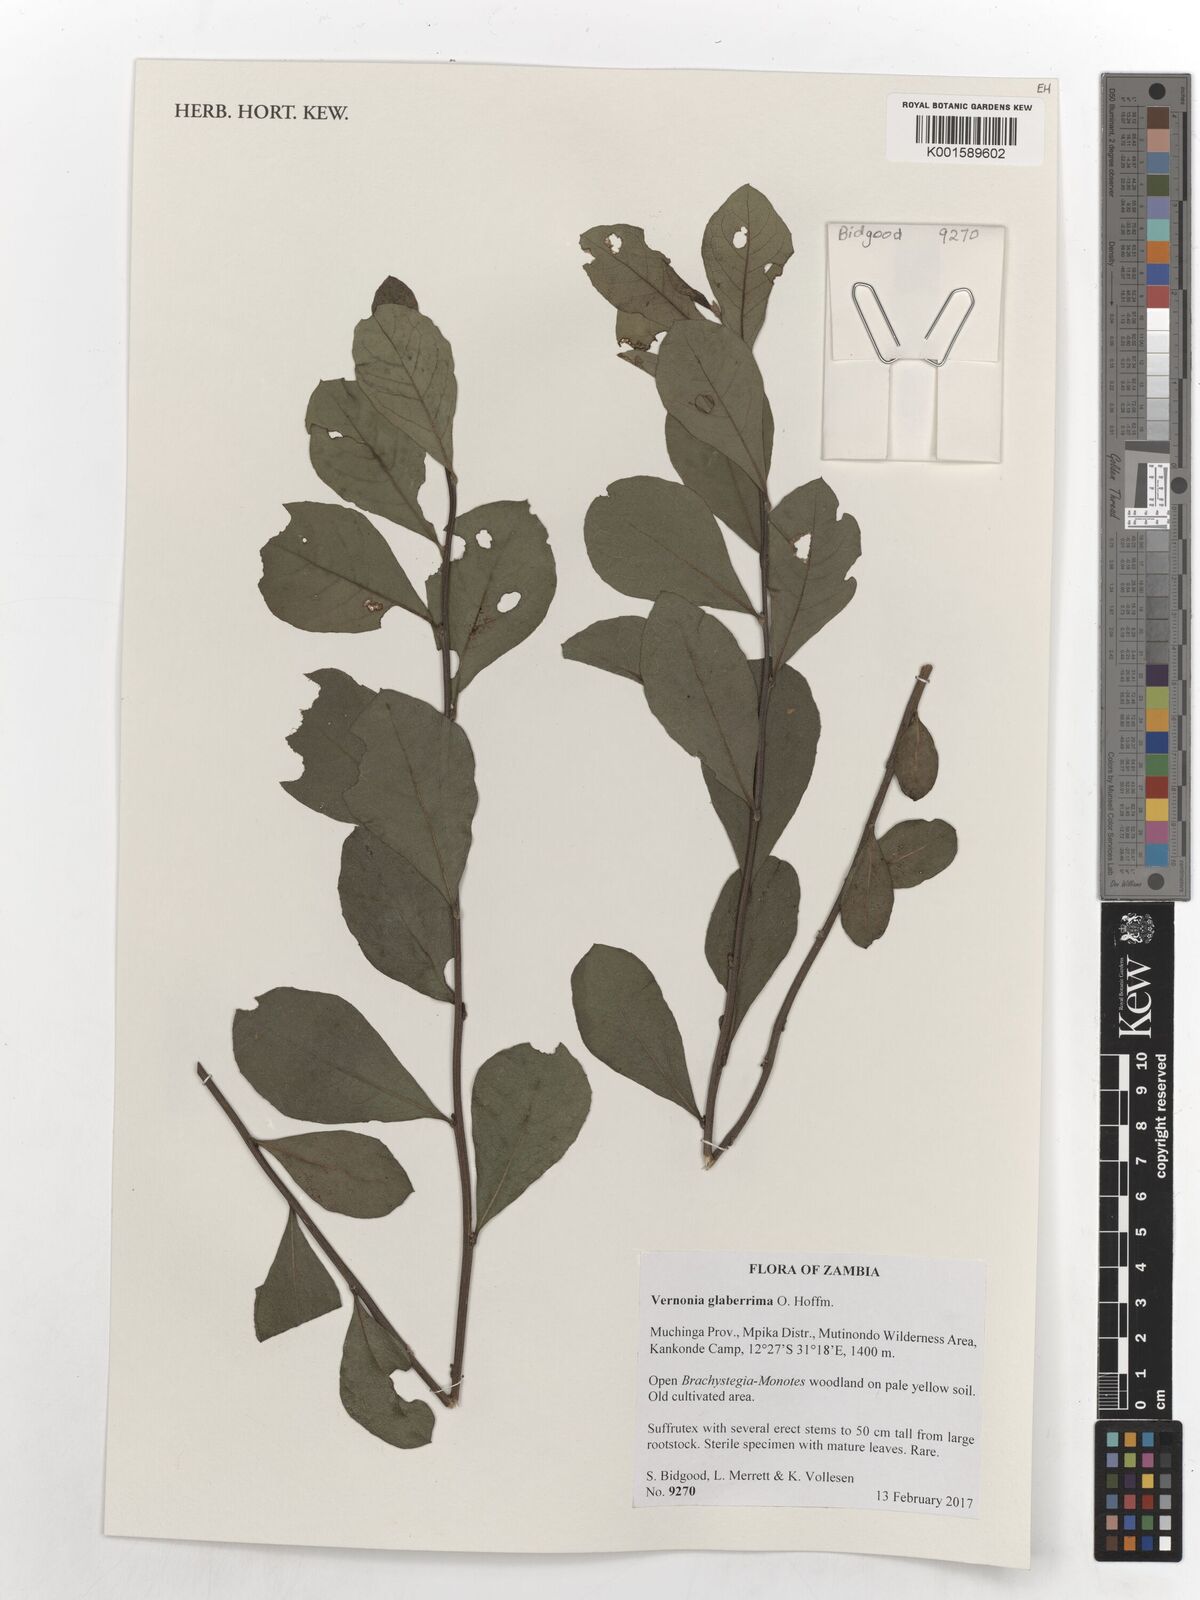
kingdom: Plantae
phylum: Tracheophyta
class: Magnoliopsida
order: Asterales
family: Asteraceae
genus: Gymnanthemum
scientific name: Gymnanthemum glaberrimum
